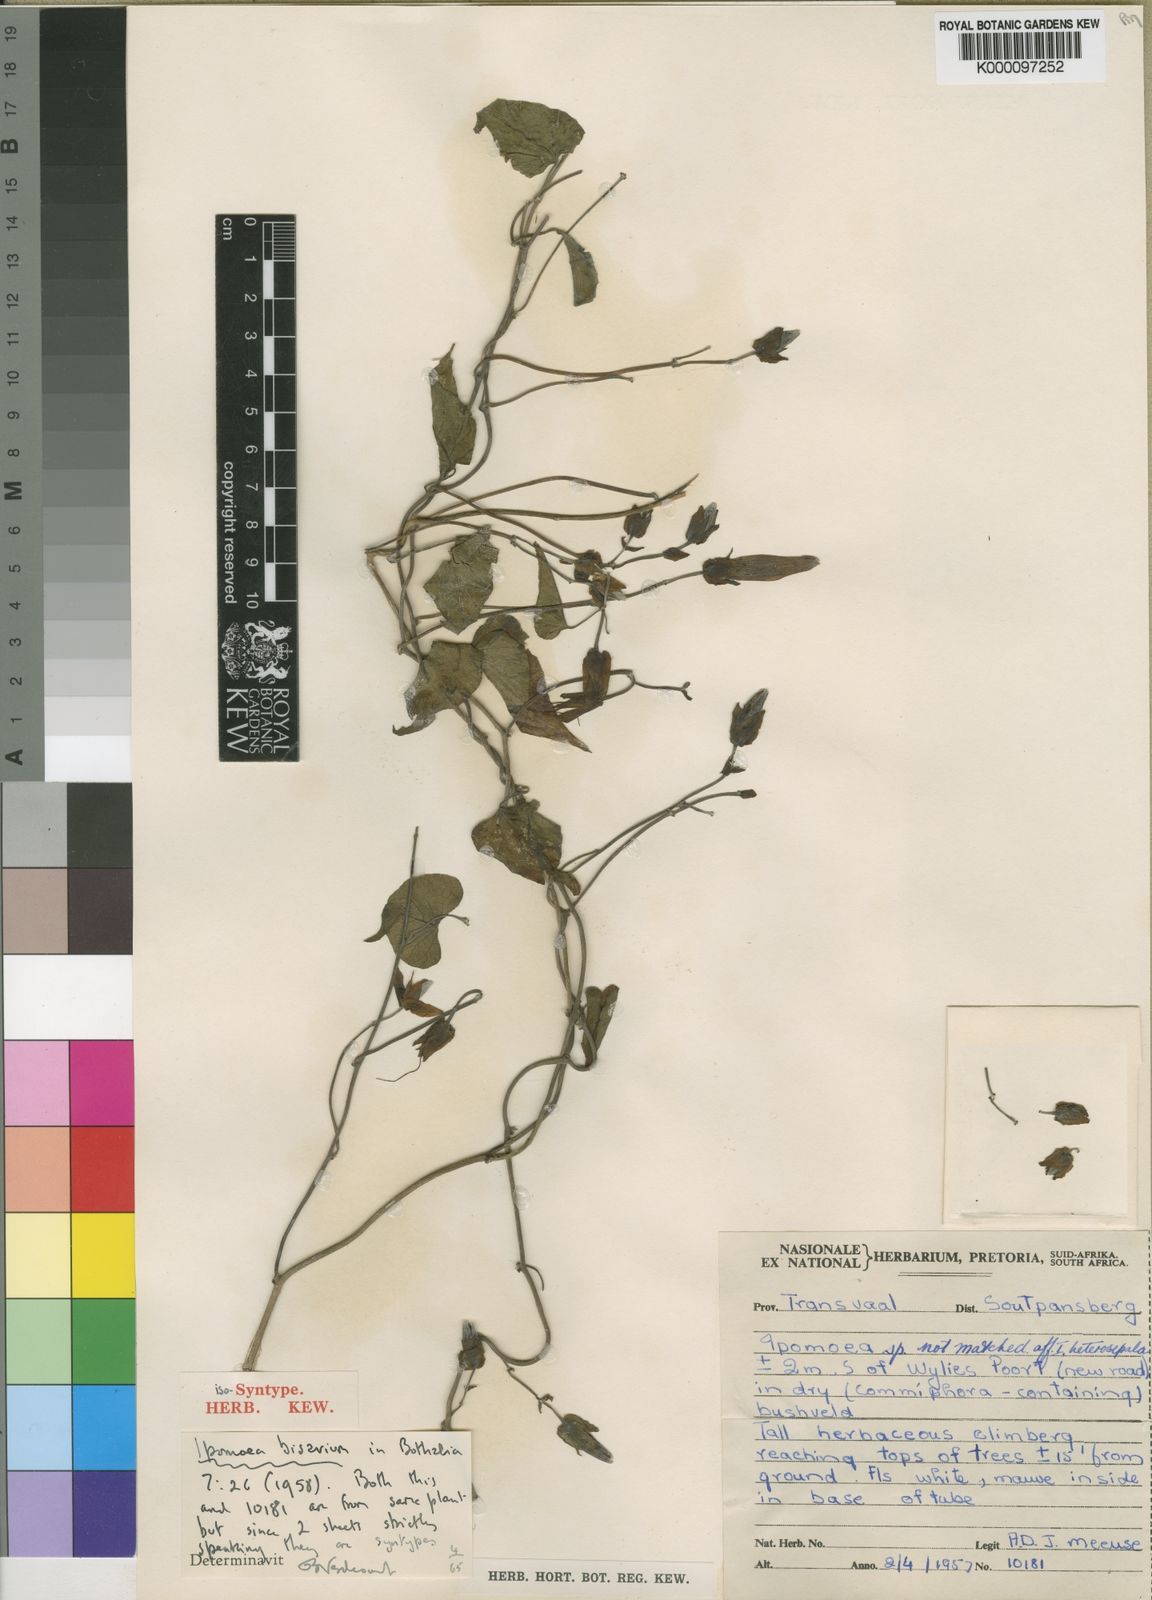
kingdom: Plantae
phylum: Tracheophyta
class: Magnoliopsida
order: Solanales
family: Convolvulaceae
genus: Ipomoea
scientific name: Ipomoea bisavium
